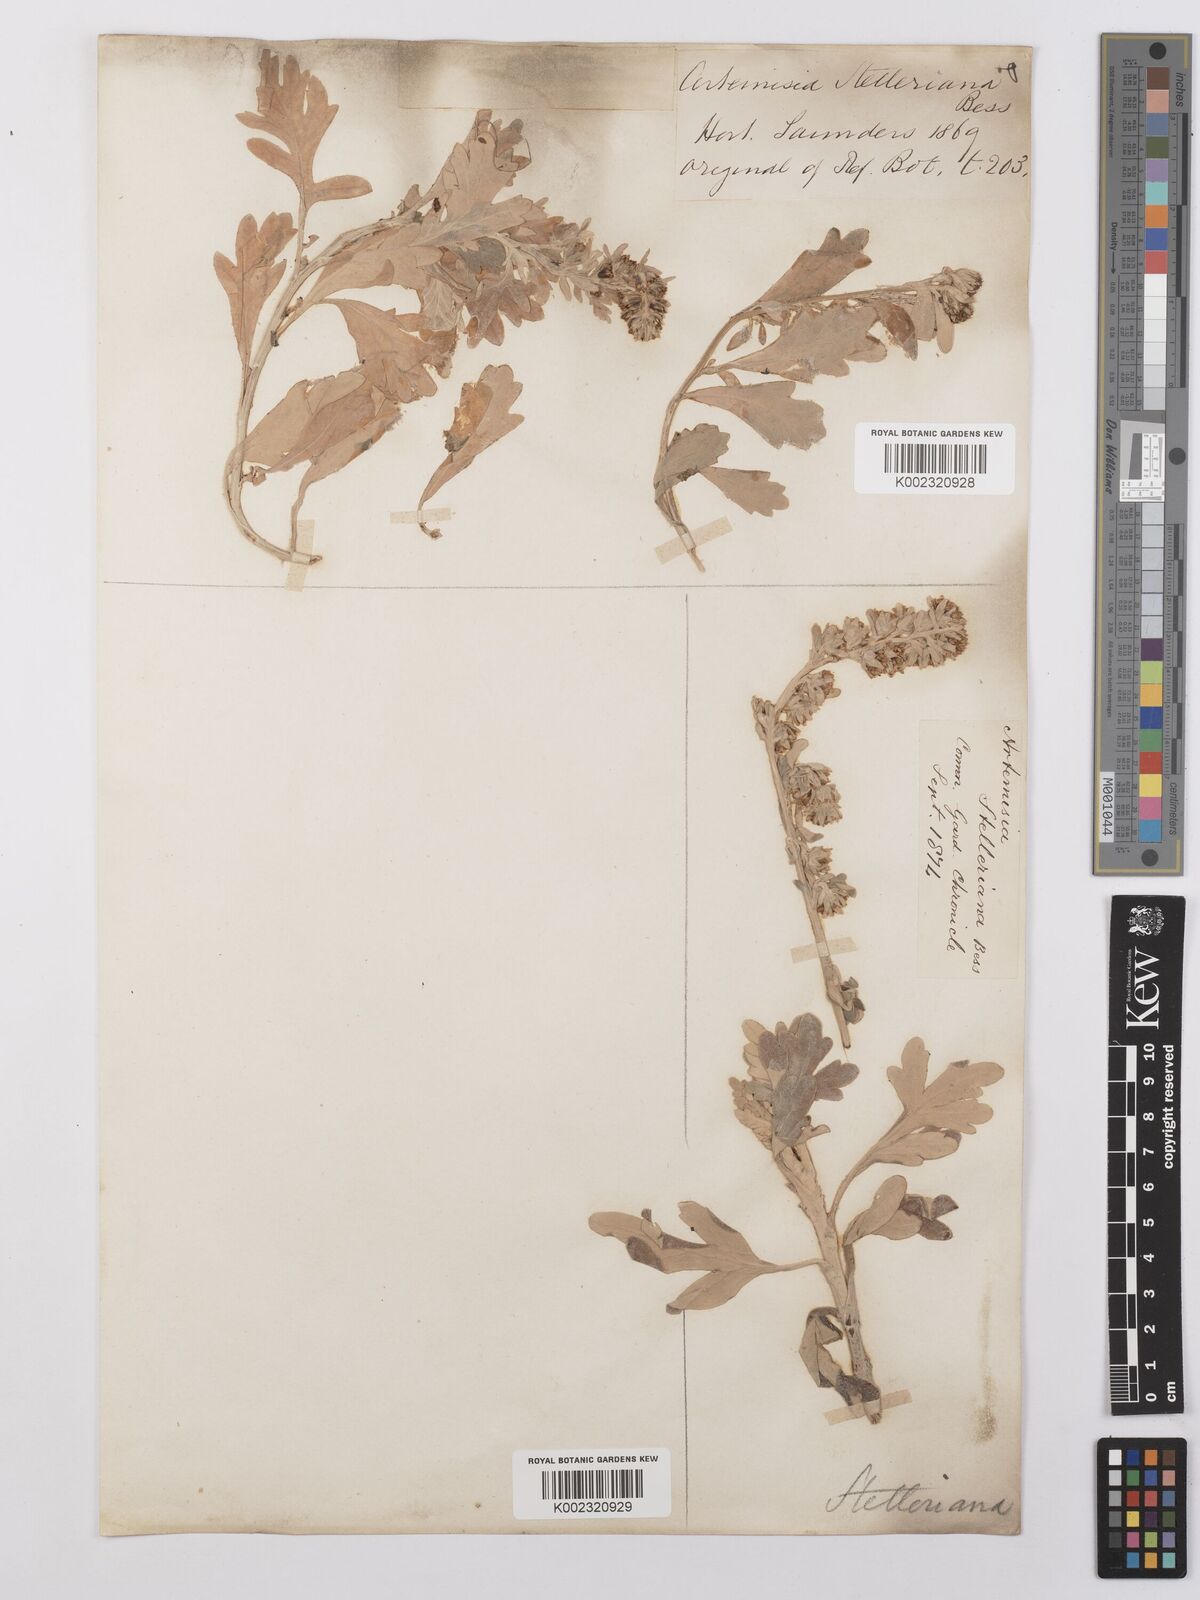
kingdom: Plantae
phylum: Tracheophyta
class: Magnoliopsida
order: Asterales
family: Asteraceae
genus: Artemisia
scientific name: Artemisia stelleriana
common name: Beach wormwood
